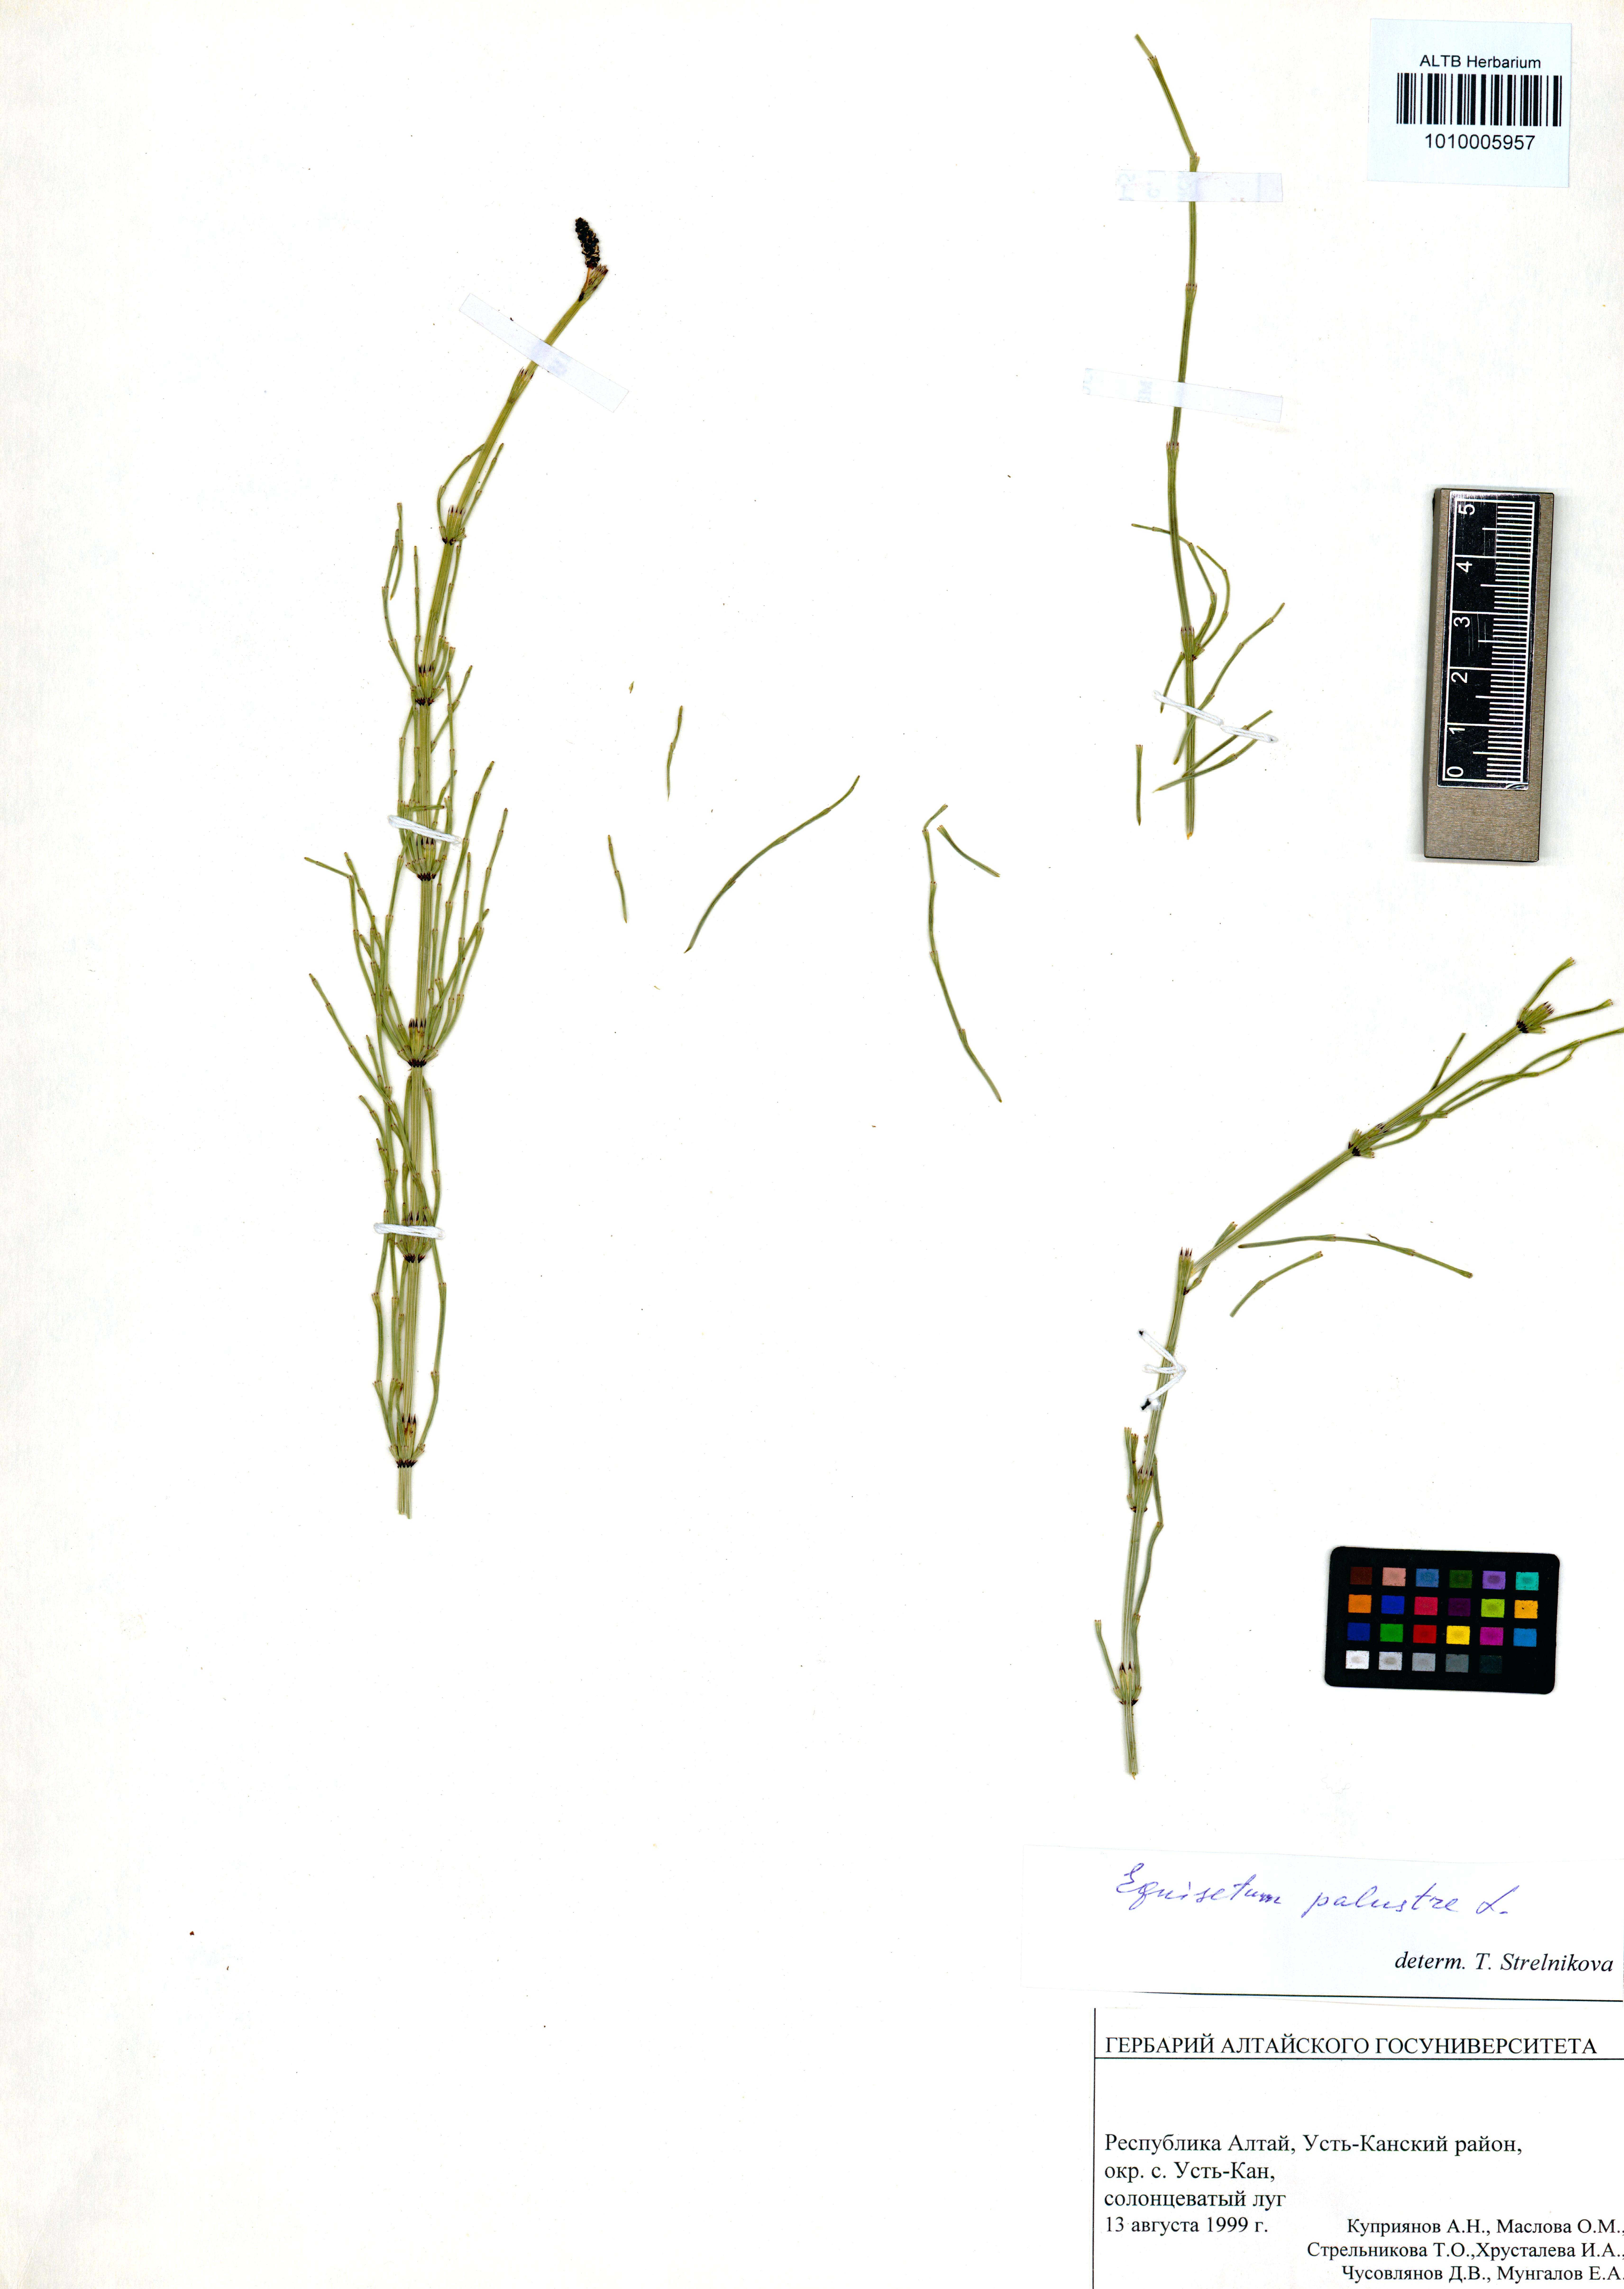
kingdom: Plantae
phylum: Tracheophyta
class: Polypodiopsida
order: Equisetales
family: Equisetaceae
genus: Equisetum
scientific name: Equisetum palustre
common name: Marsh horsetail
